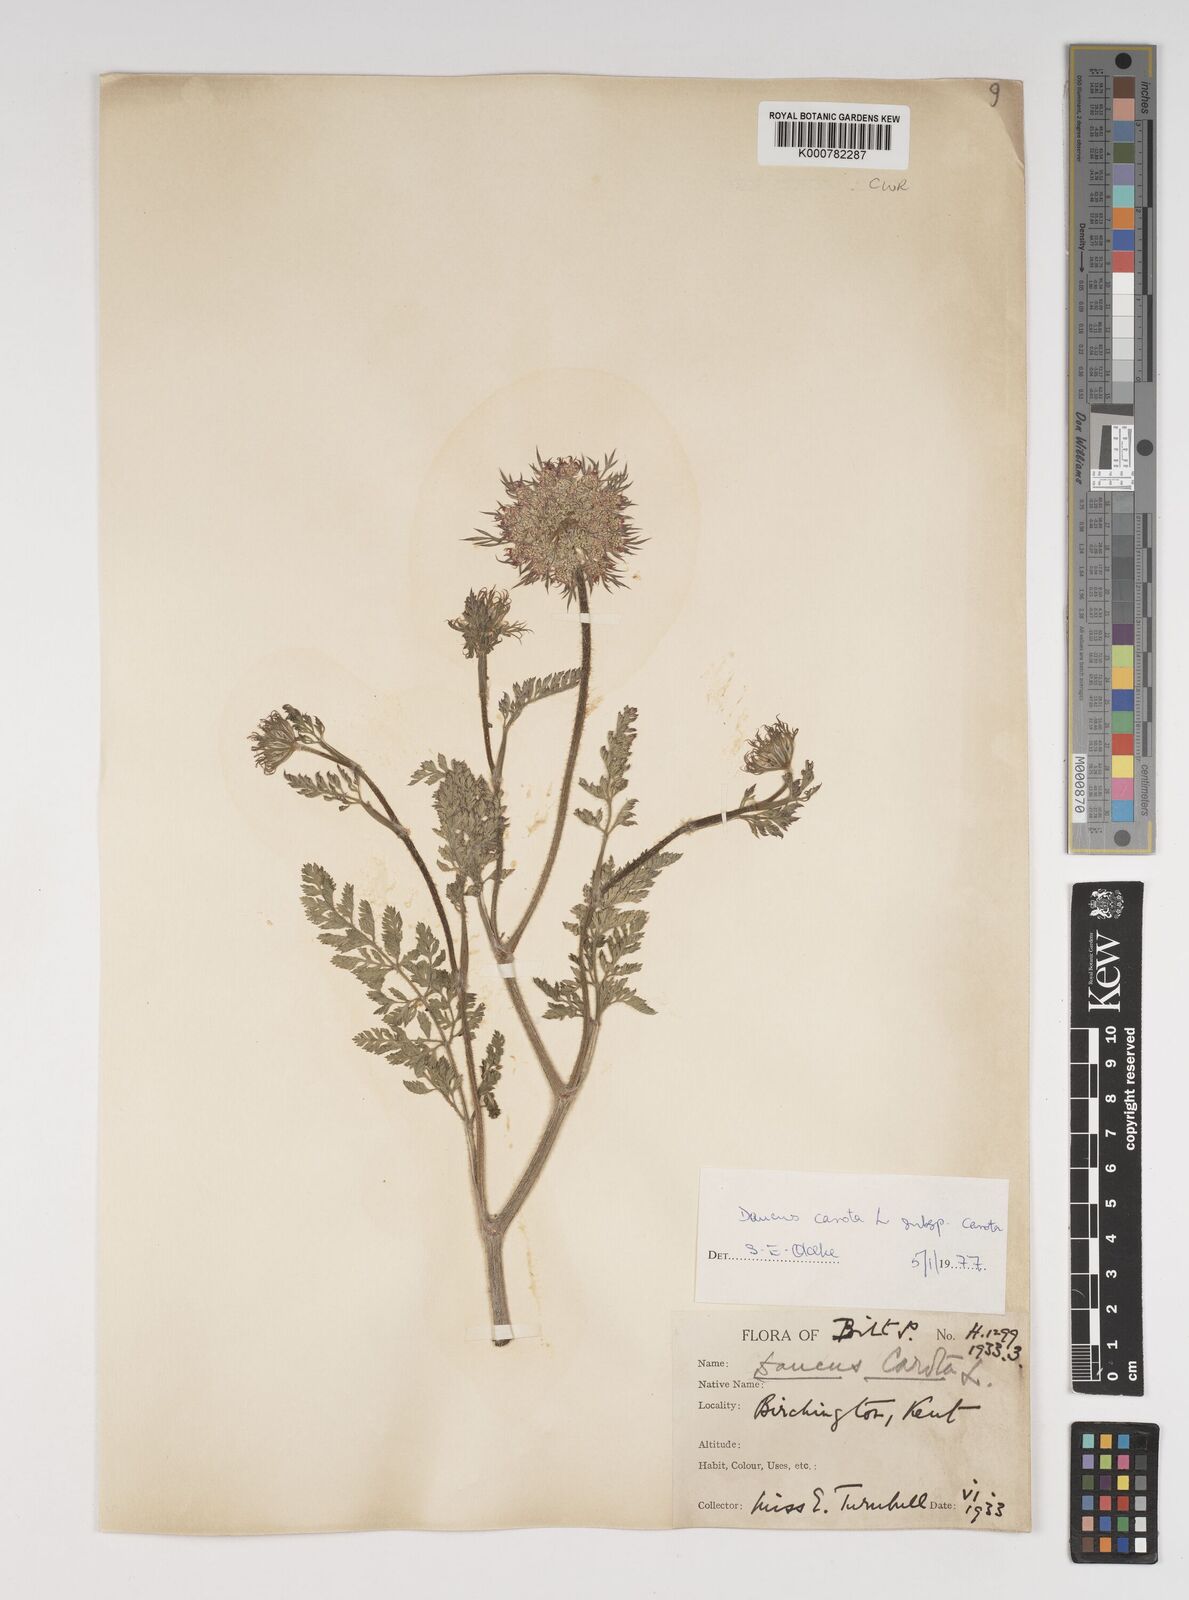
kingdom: Plantae
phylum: Tracheophyta
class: Magnoliopsida
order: Apiales
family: Apiaceae
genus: Daucus
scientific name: Daucus carota
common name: Wild carrot
